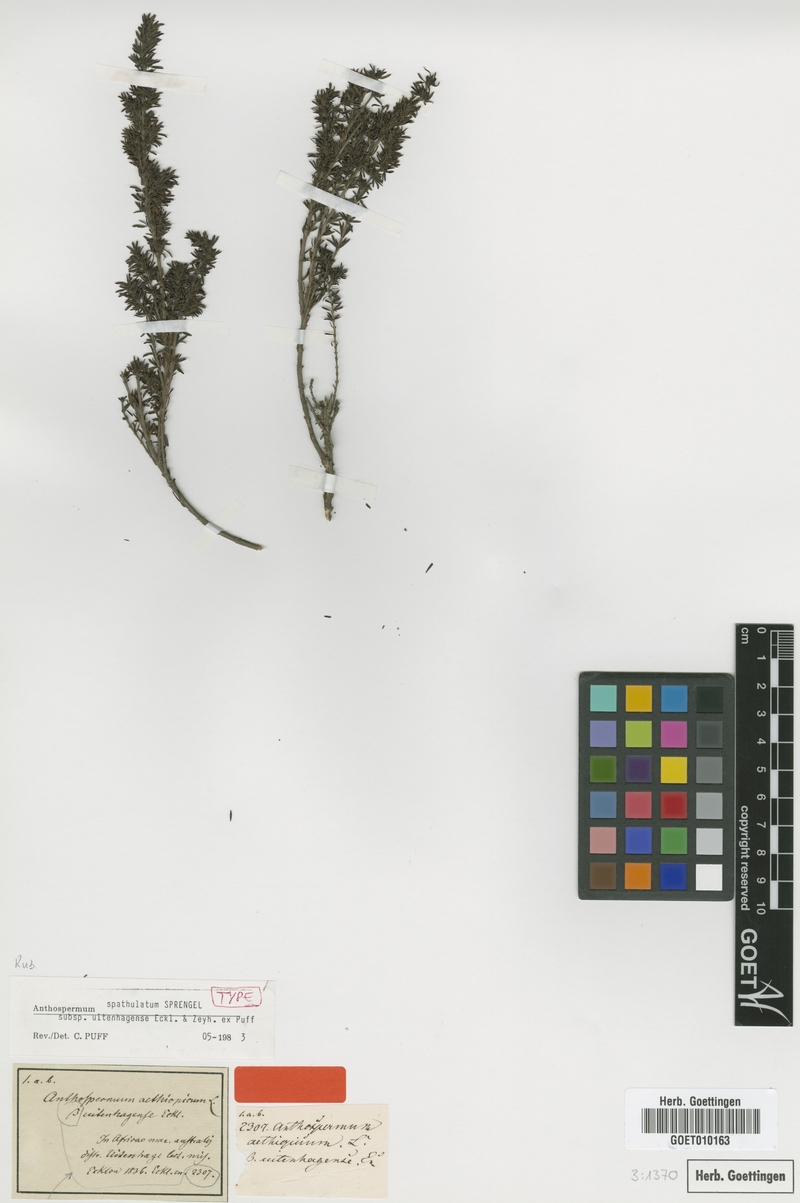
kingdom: Plantae
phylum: Tracheophyta
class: Magnoliopsida
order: Gentianales
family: Rubiaceae
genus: Anthospermum
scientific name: Anthospermum spathulatum
